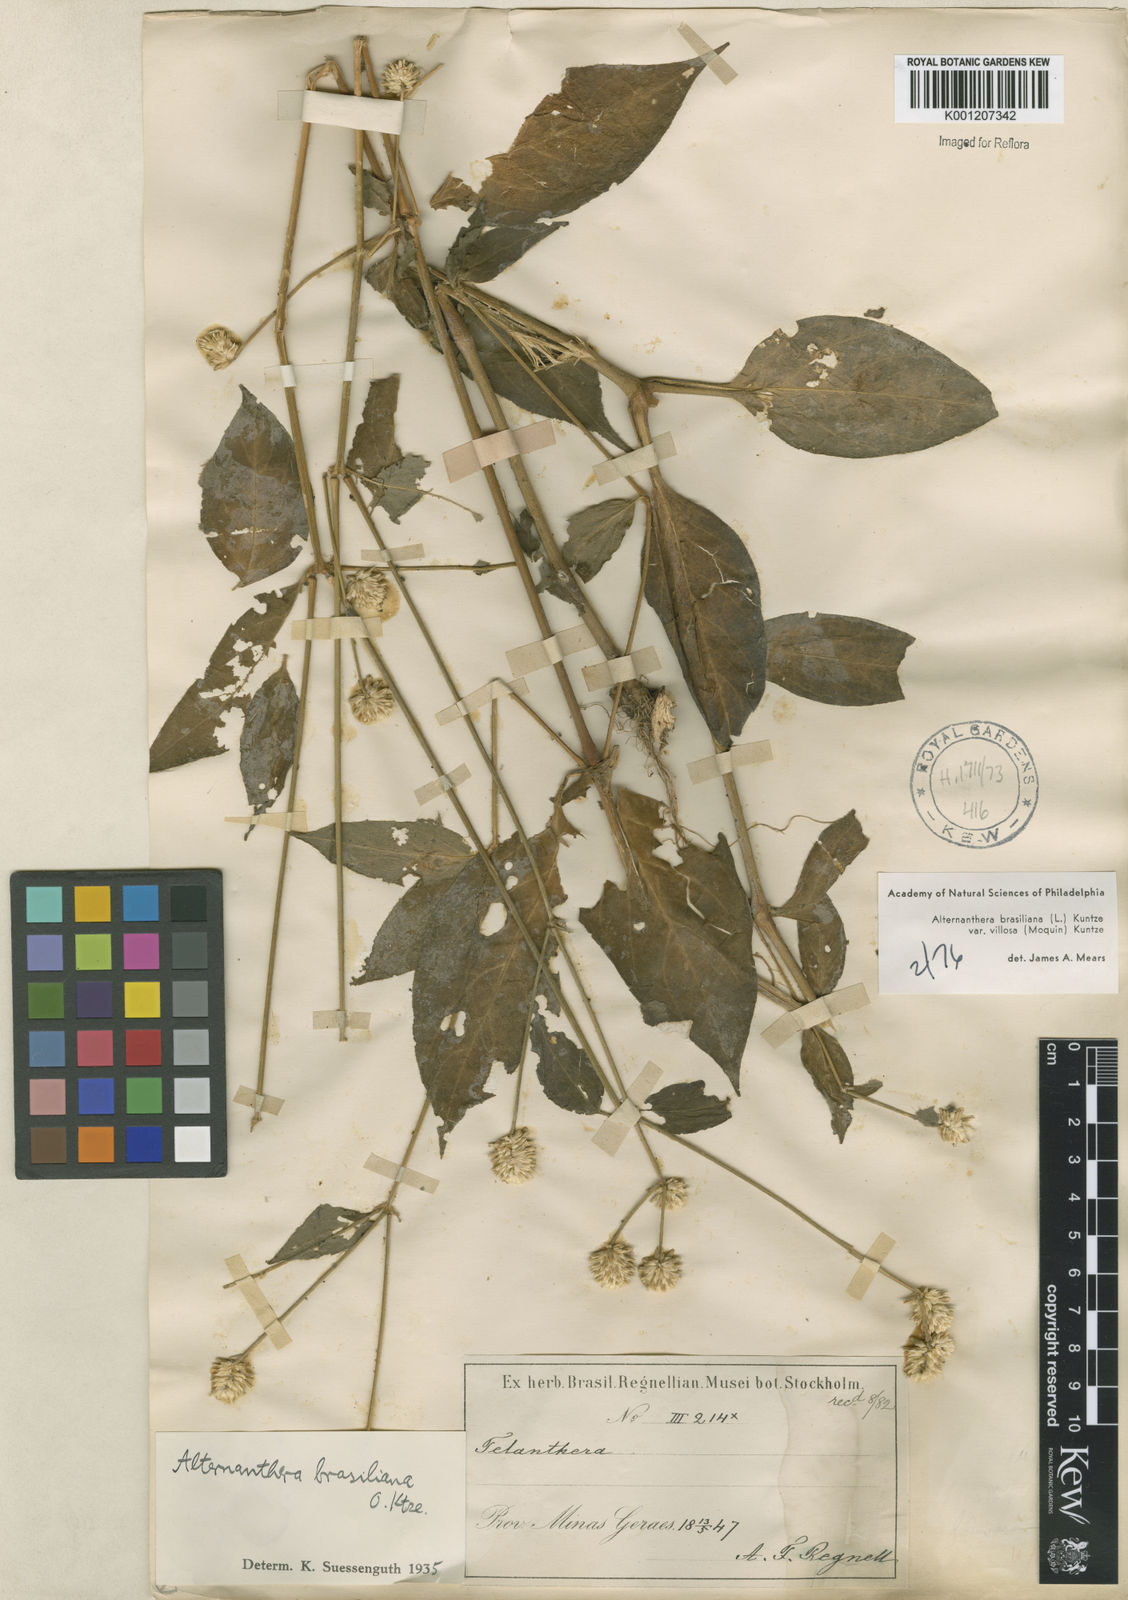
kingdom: Plantae
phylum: Tracheophyta
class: Magnoliopsida
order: Caryophyllales
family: Amaranthaceae
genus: Alternanthera
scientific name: Alternanthera ramosissima
